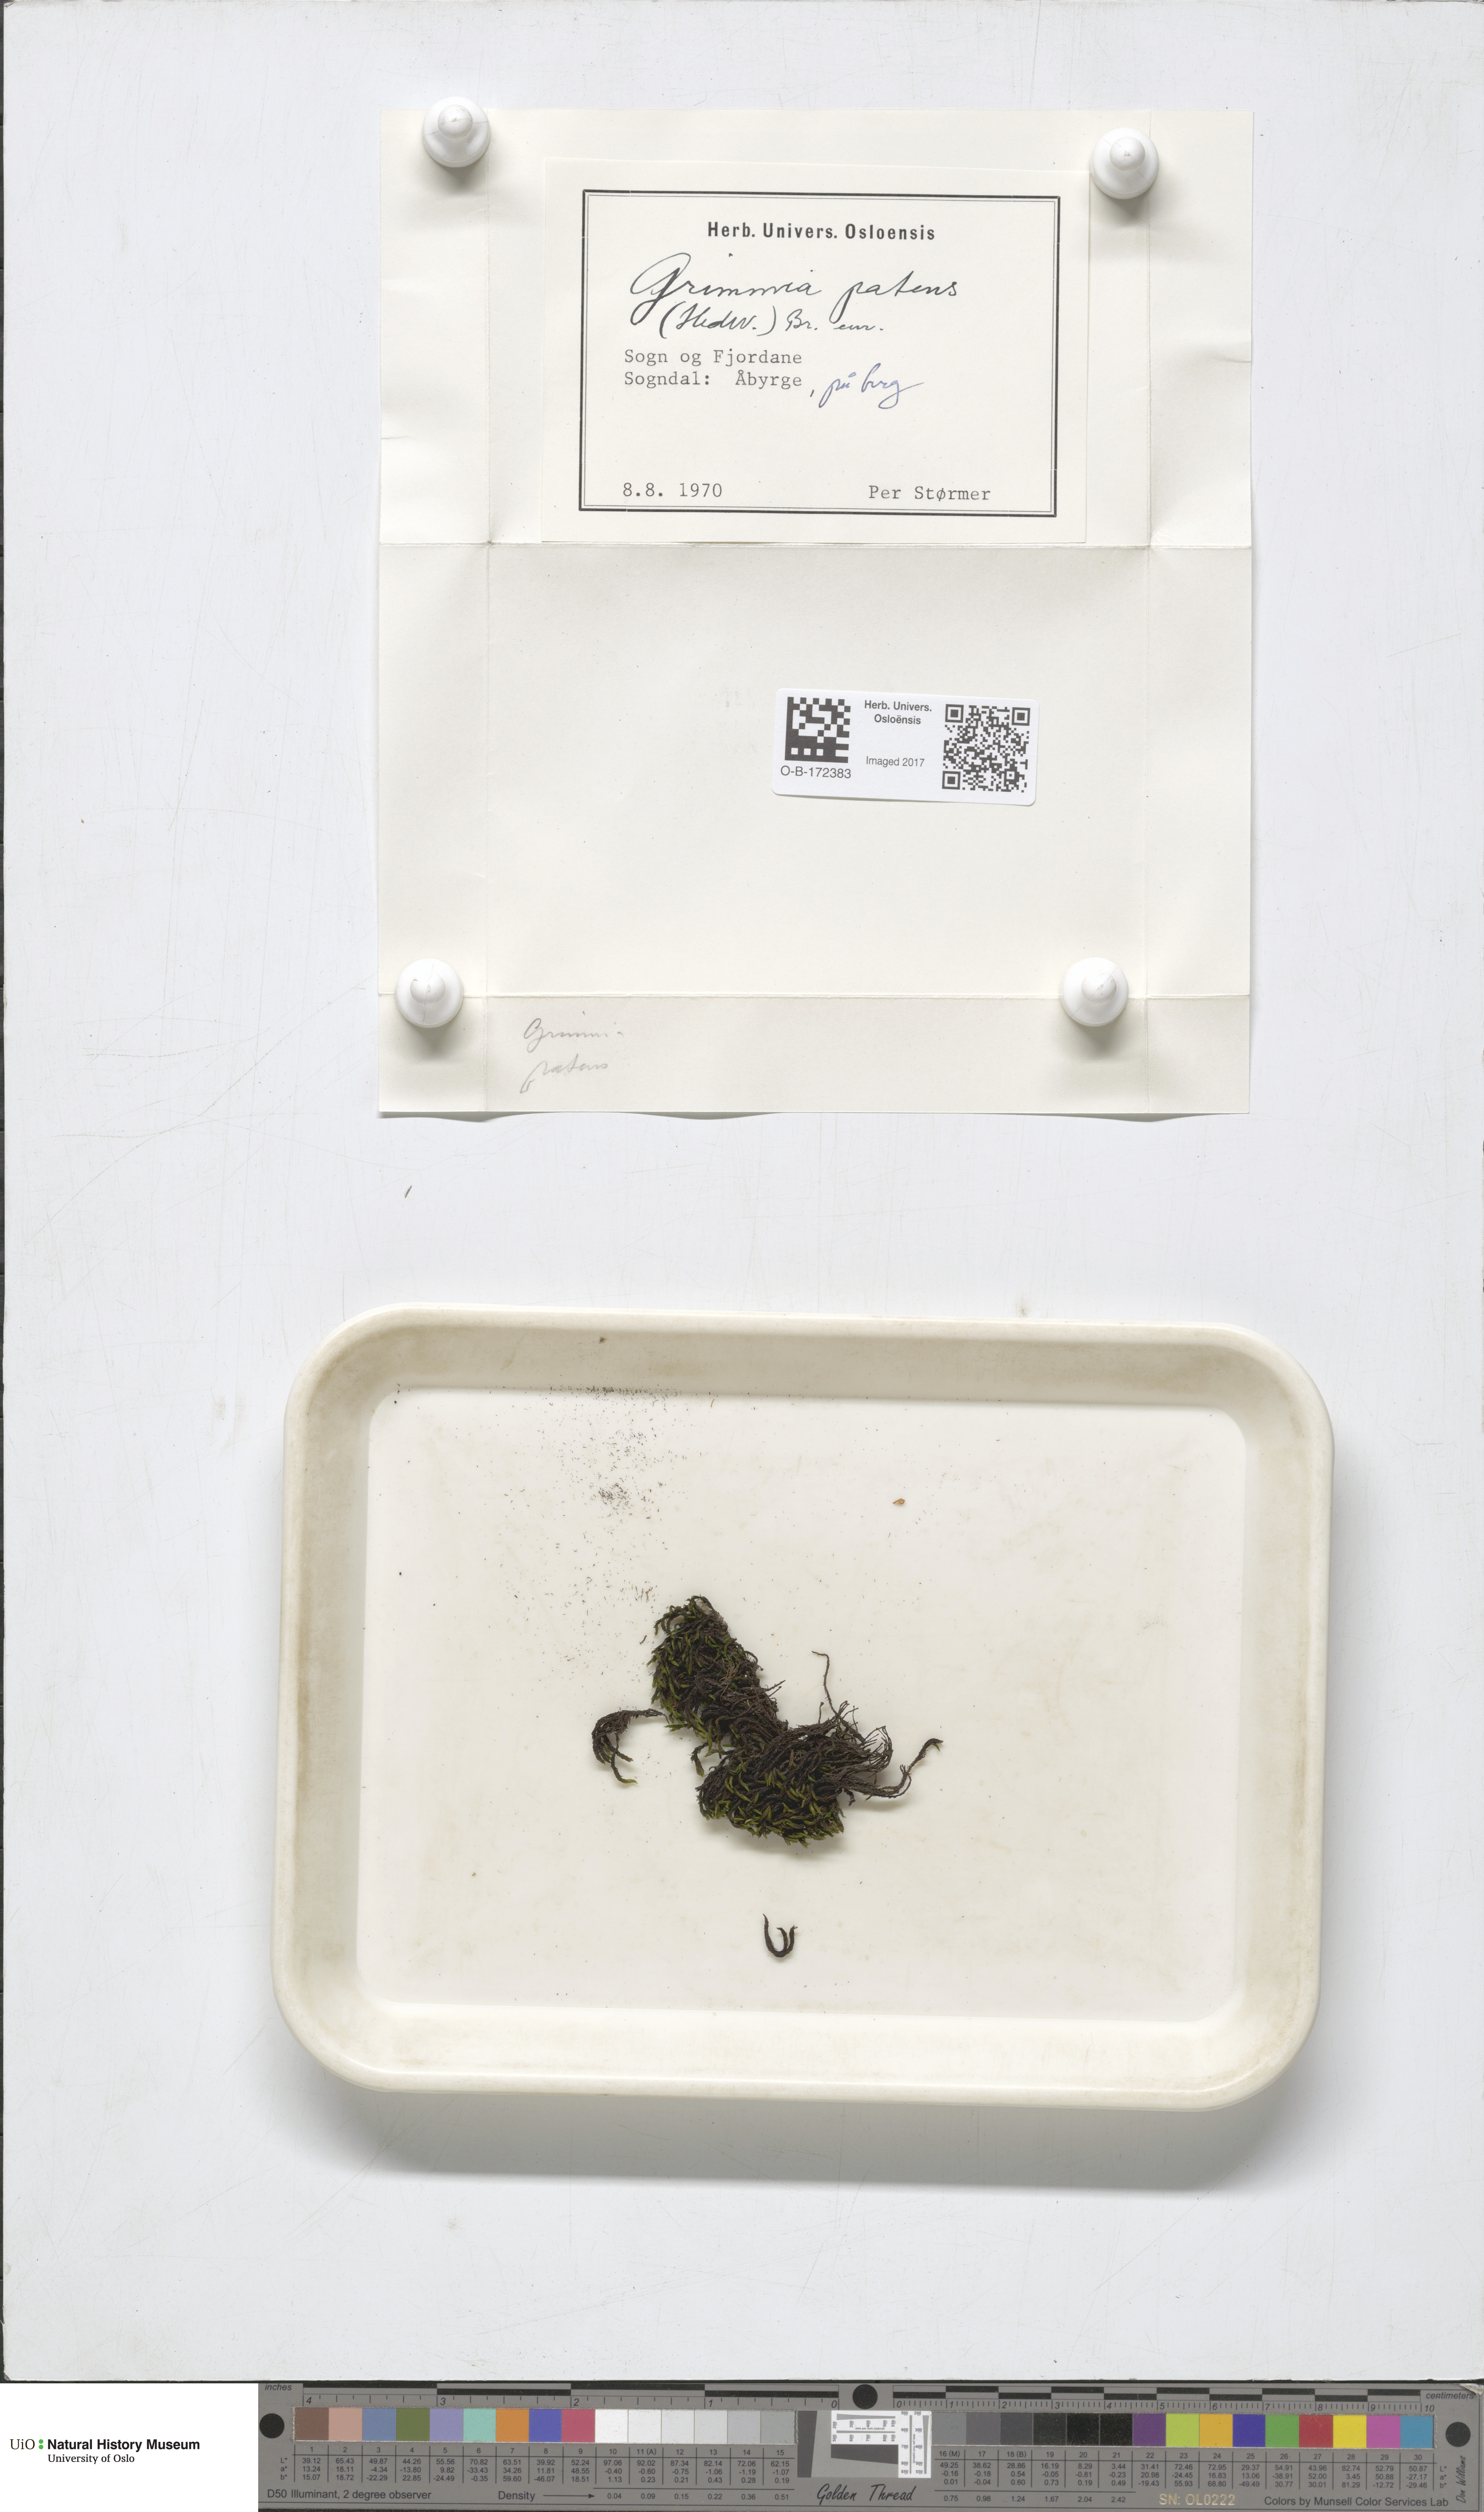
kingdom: Plantae
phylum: Bryophyta
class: Bryopsida
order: Grimmiales
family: Grimmiaceae
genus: Grimmia
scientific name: Grimmia ramondii
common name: Spreading-leaved grimmia
